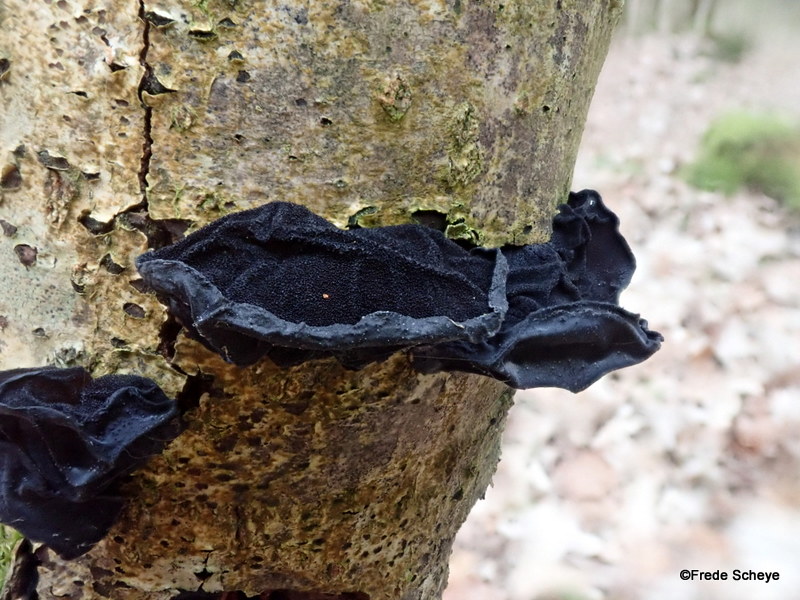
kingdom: Fungi
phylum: Basidiomycota
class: Agaricomycetes
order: Auriculariales
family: Auriculariaceae
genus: Exidia
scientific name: Exidia glandulosa
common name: ege-bævretop
